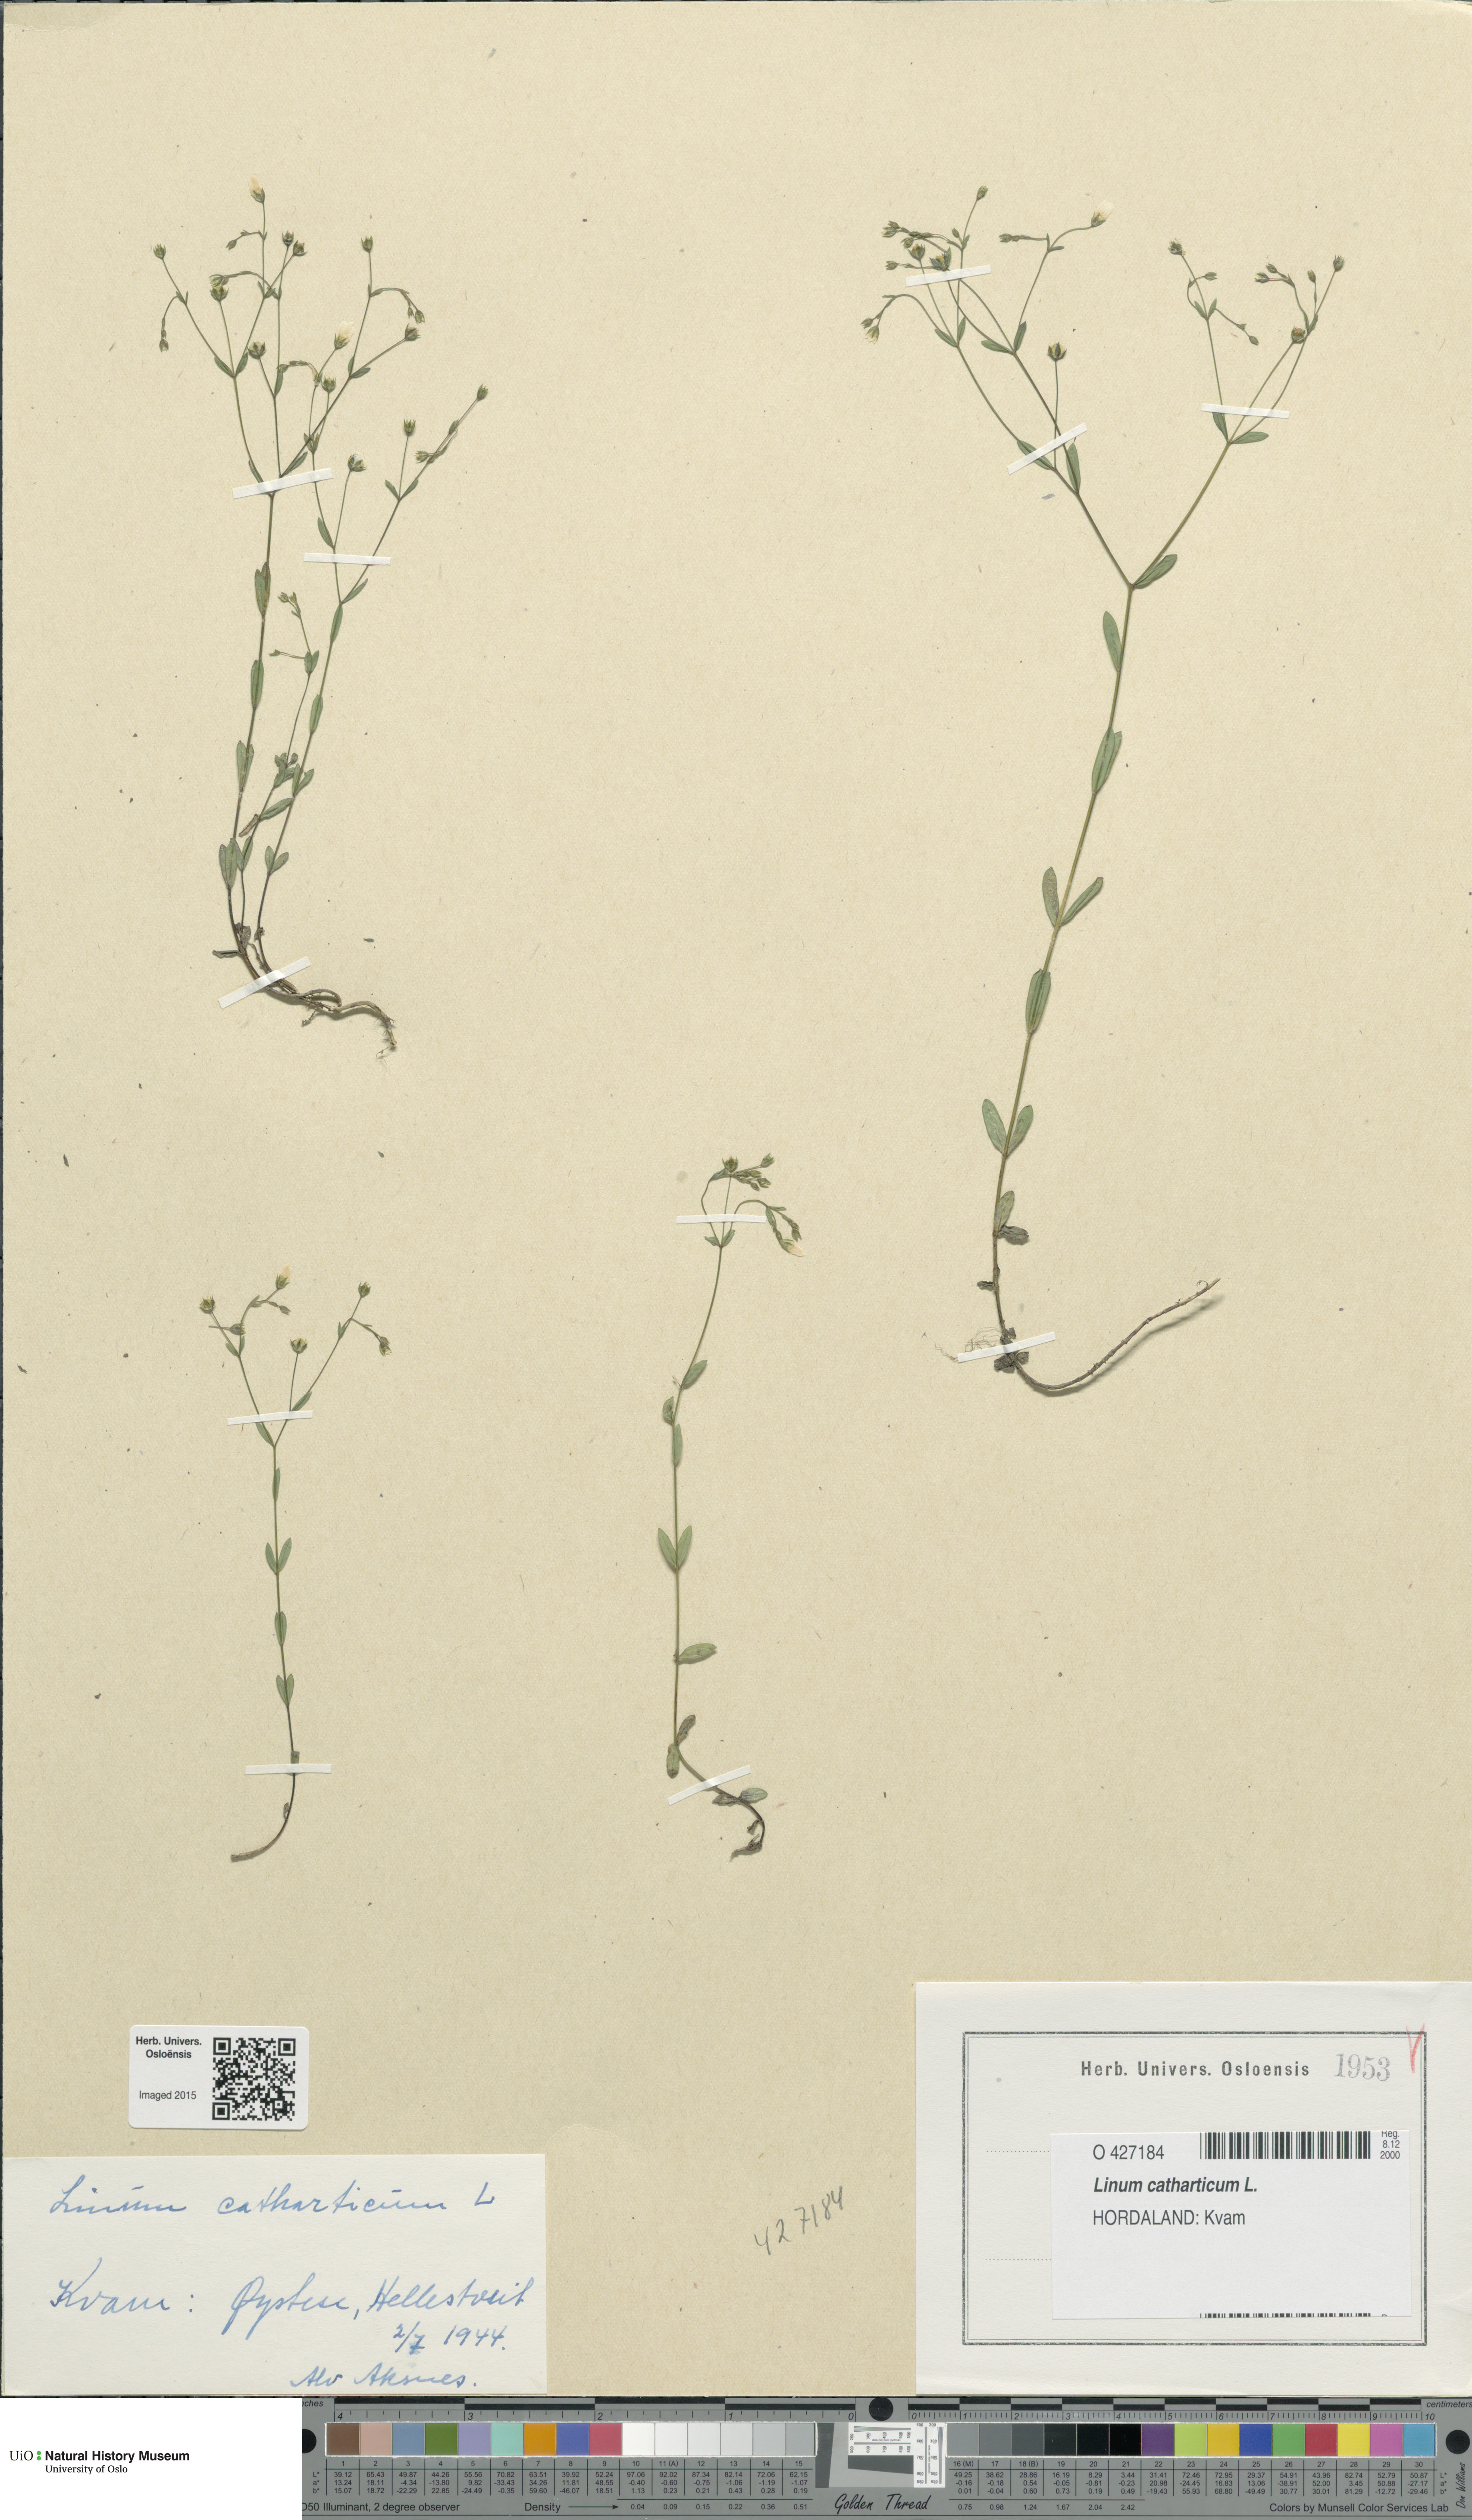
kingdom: Plantae
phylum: Tracheophyta
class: Magnoliopsida
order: Malpighiales
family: Linaceae
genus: Linum
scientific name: Linum catharticum
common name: Fairy flax
